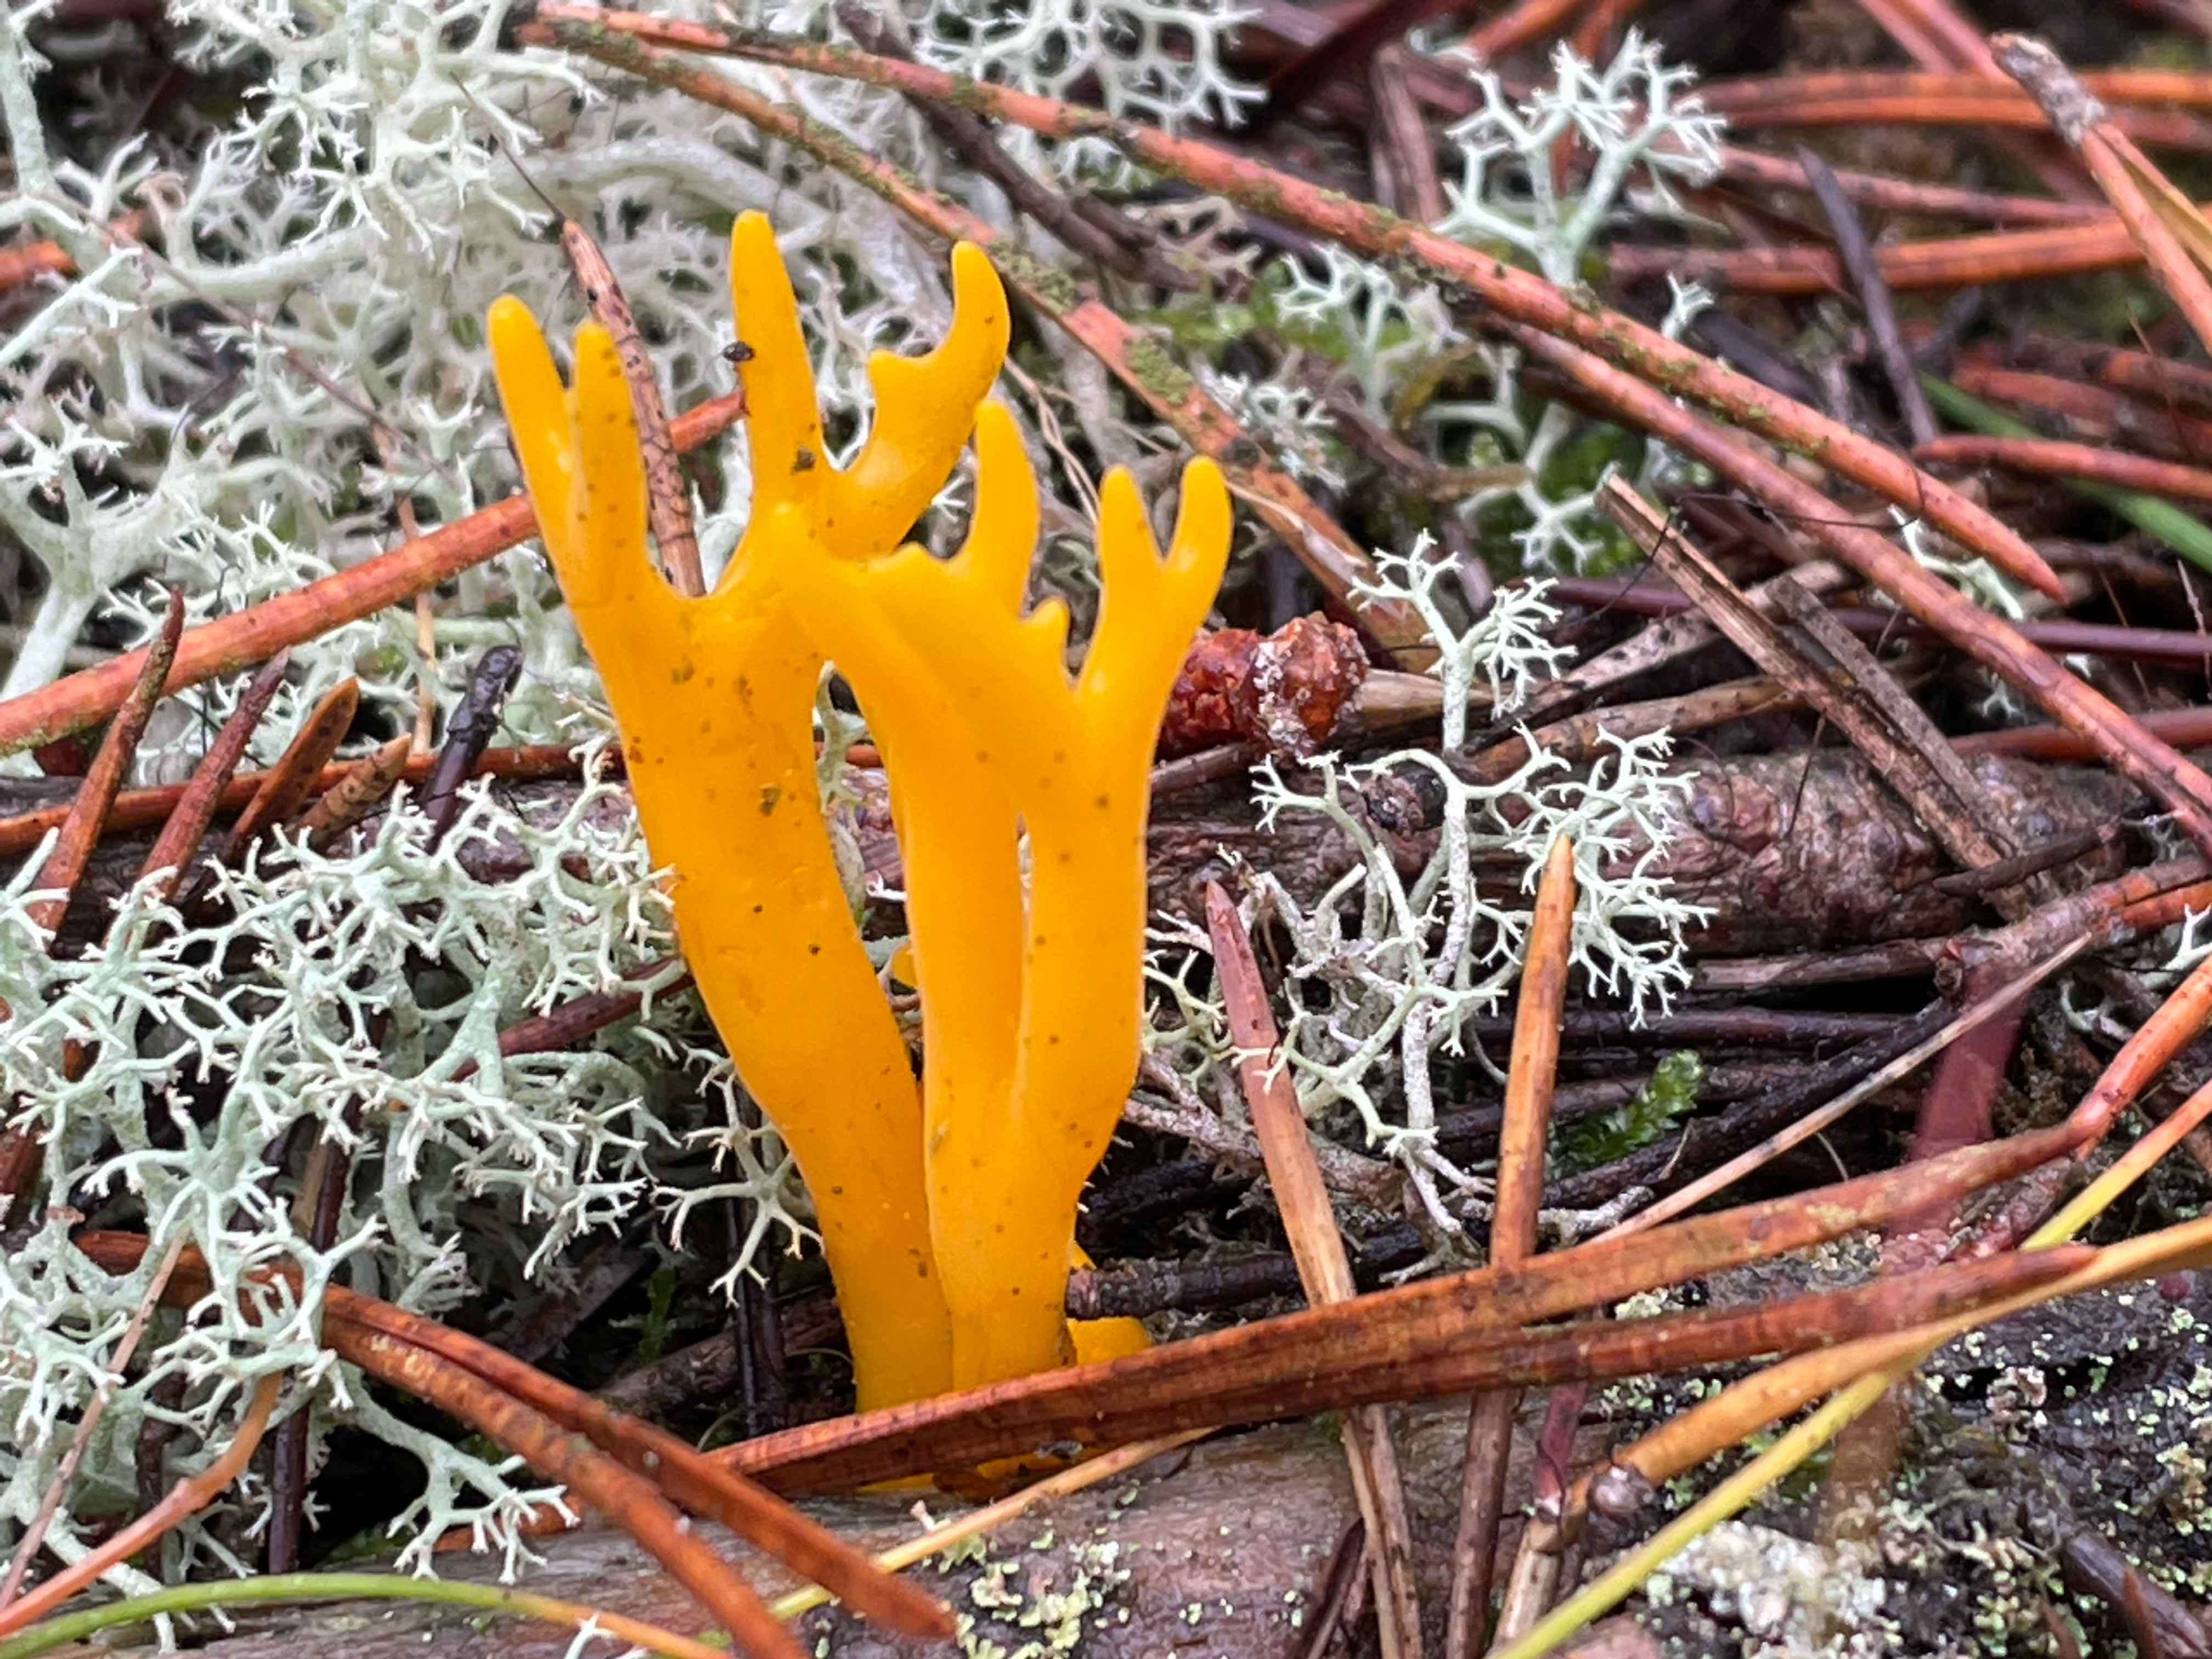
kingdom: Fungi
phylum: Basidiomycota
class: Dacrymycetes
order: Dacrymycetales
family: Dacrymycetaceae
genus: Calocera
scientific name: Calocera viscosa
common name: almindelig guldgaffel
